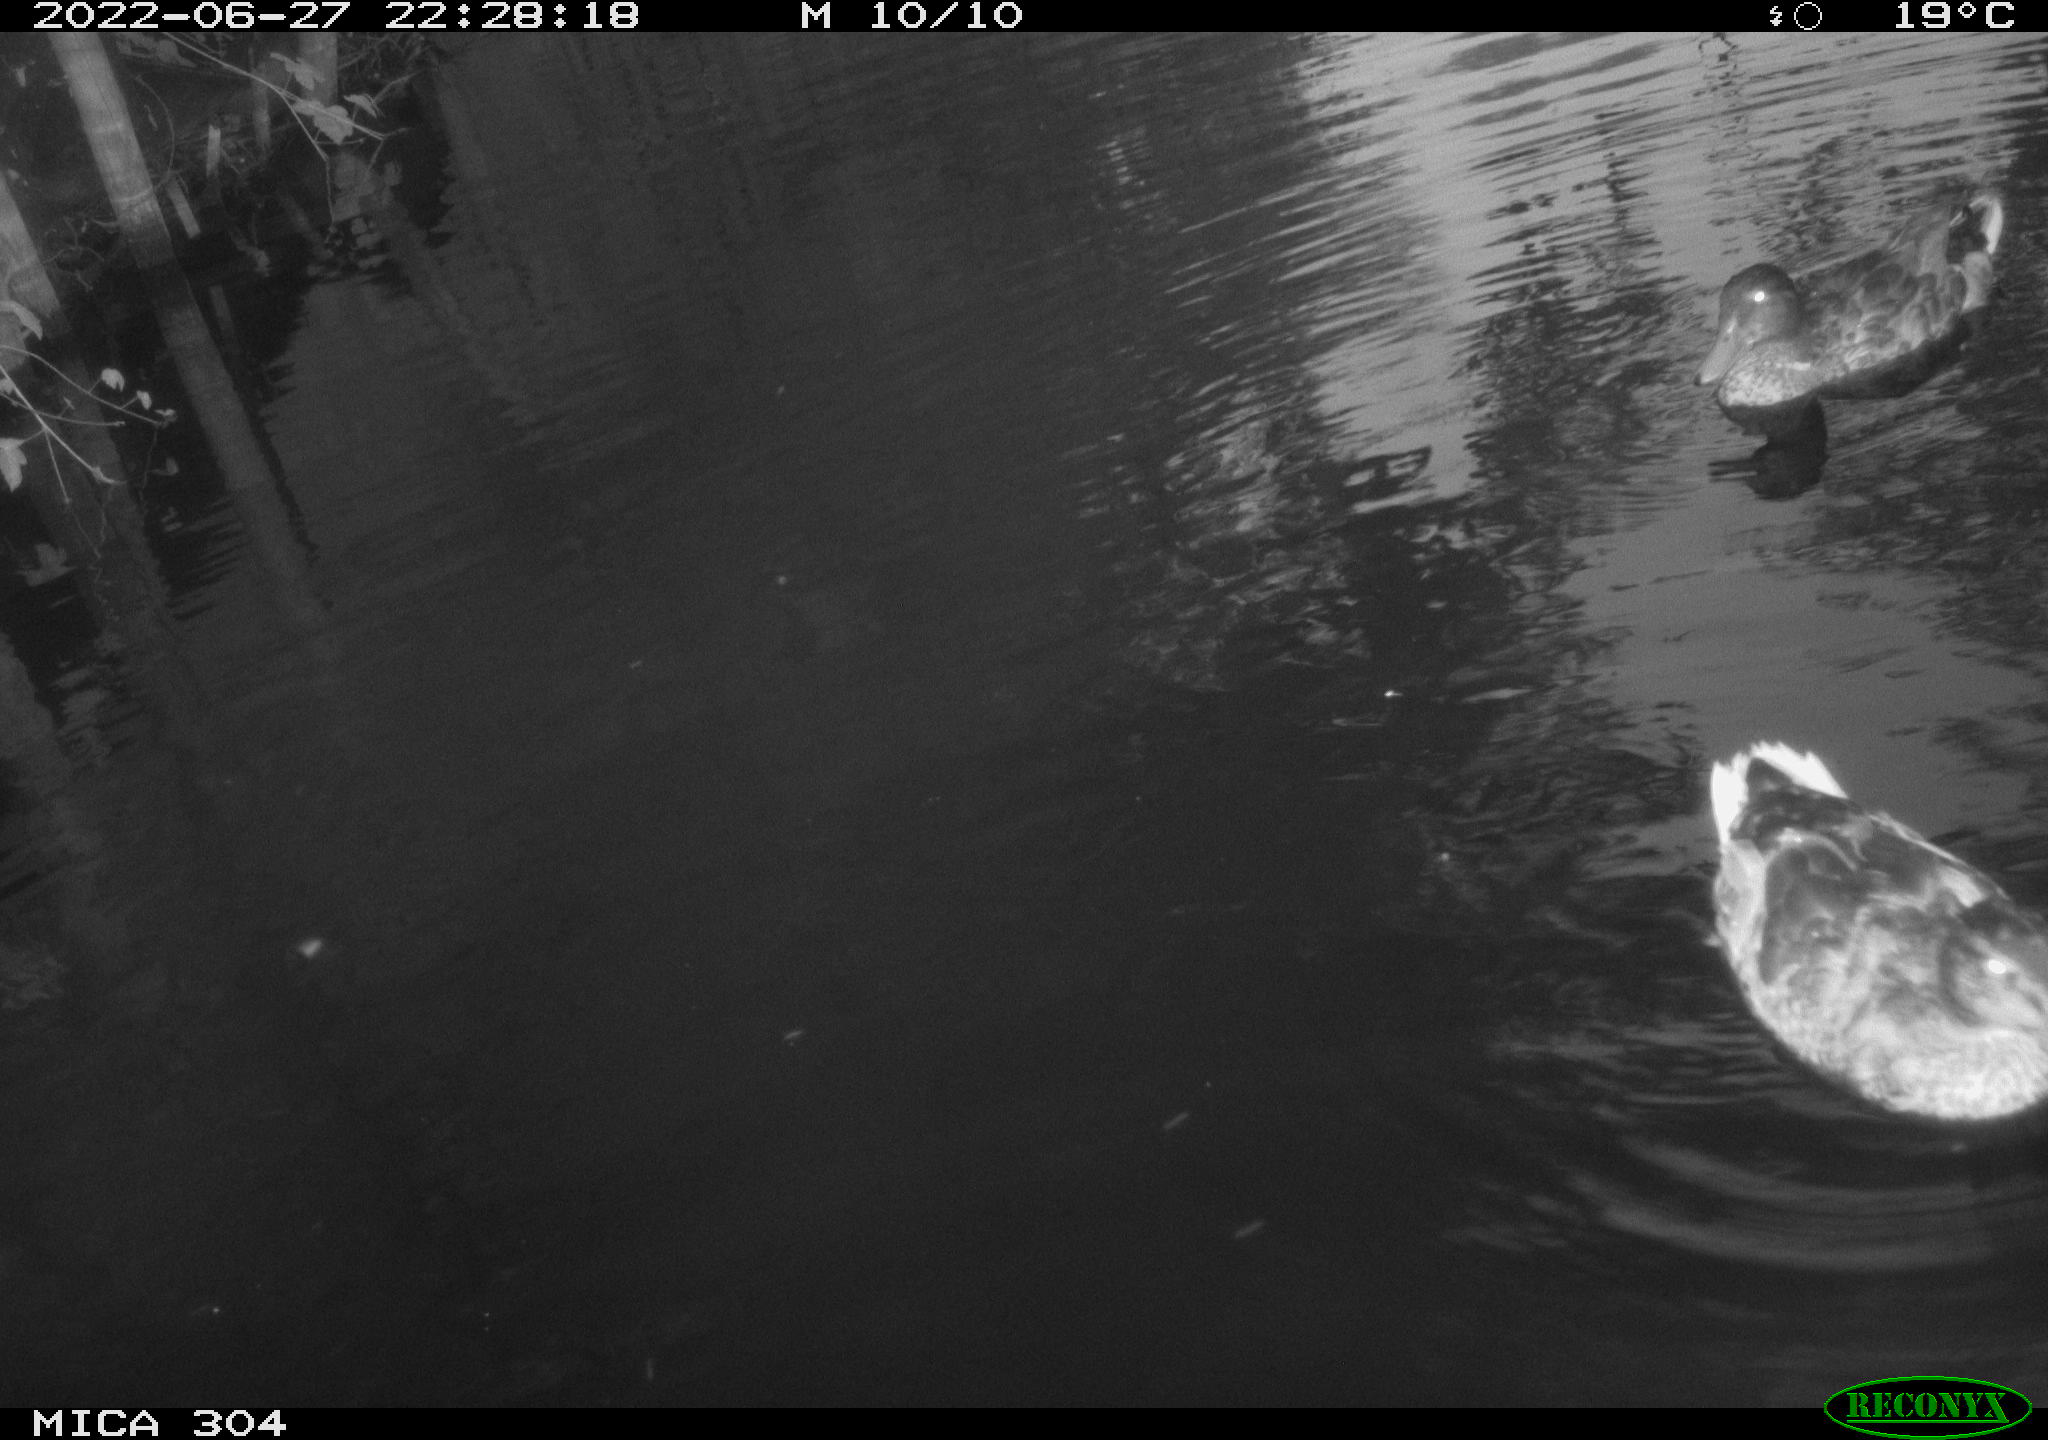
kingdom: Animalia
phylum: Chordata
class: Aves
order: Anseriformes
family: Anatidae
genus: Mareca
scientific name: Mareca strepera
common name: Gadwall
